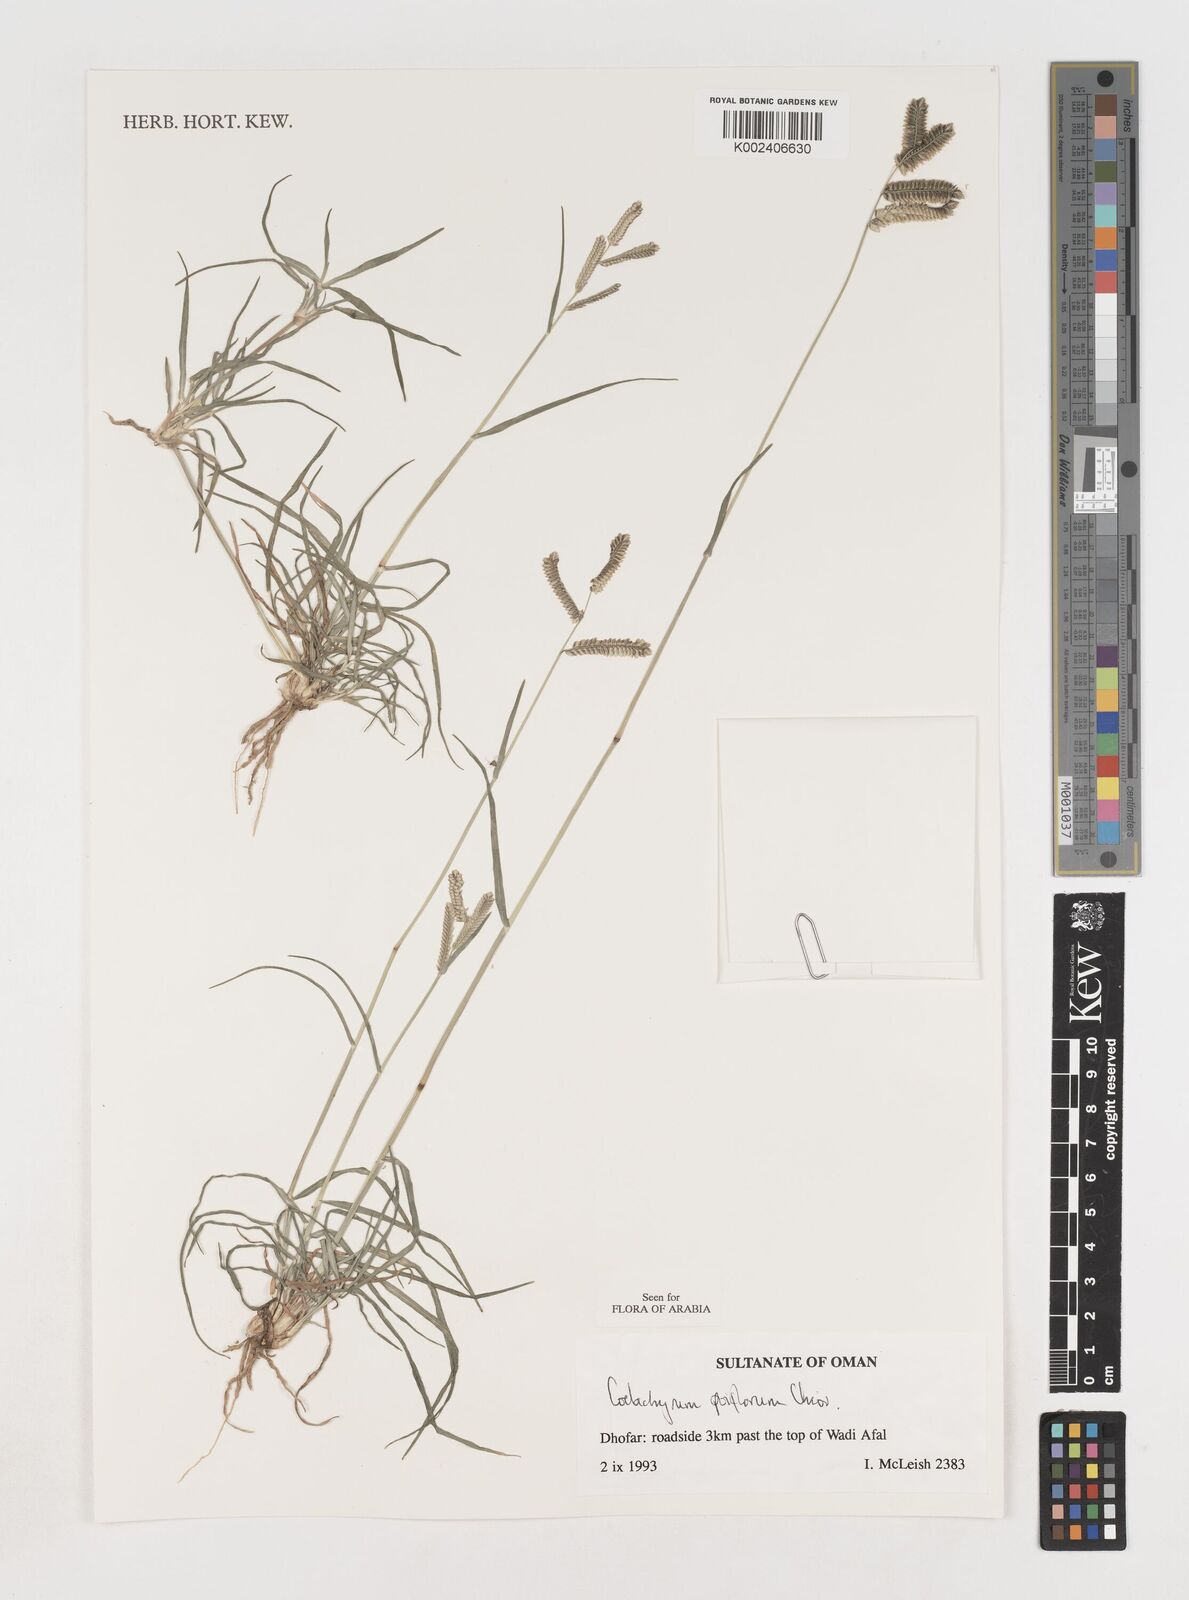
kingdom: Plantae
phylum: Tracheophyta
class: Liliopsida
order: Poales
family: Poaceae
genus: Coelachyrum
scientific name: Coelachyrum poiflorum
